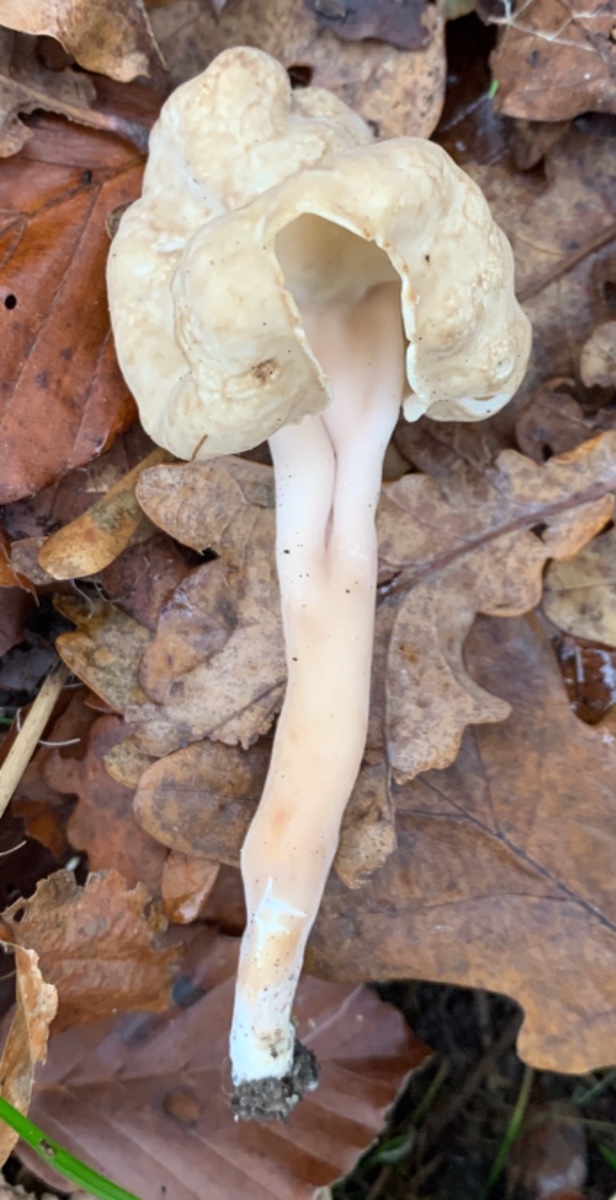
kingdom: Fungi
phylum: Ascomycota
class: Pezizomycetes
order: Pezizales
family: Helvellaceae
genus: Helvella
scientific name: Helvella crispa
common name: kruset foldhat
